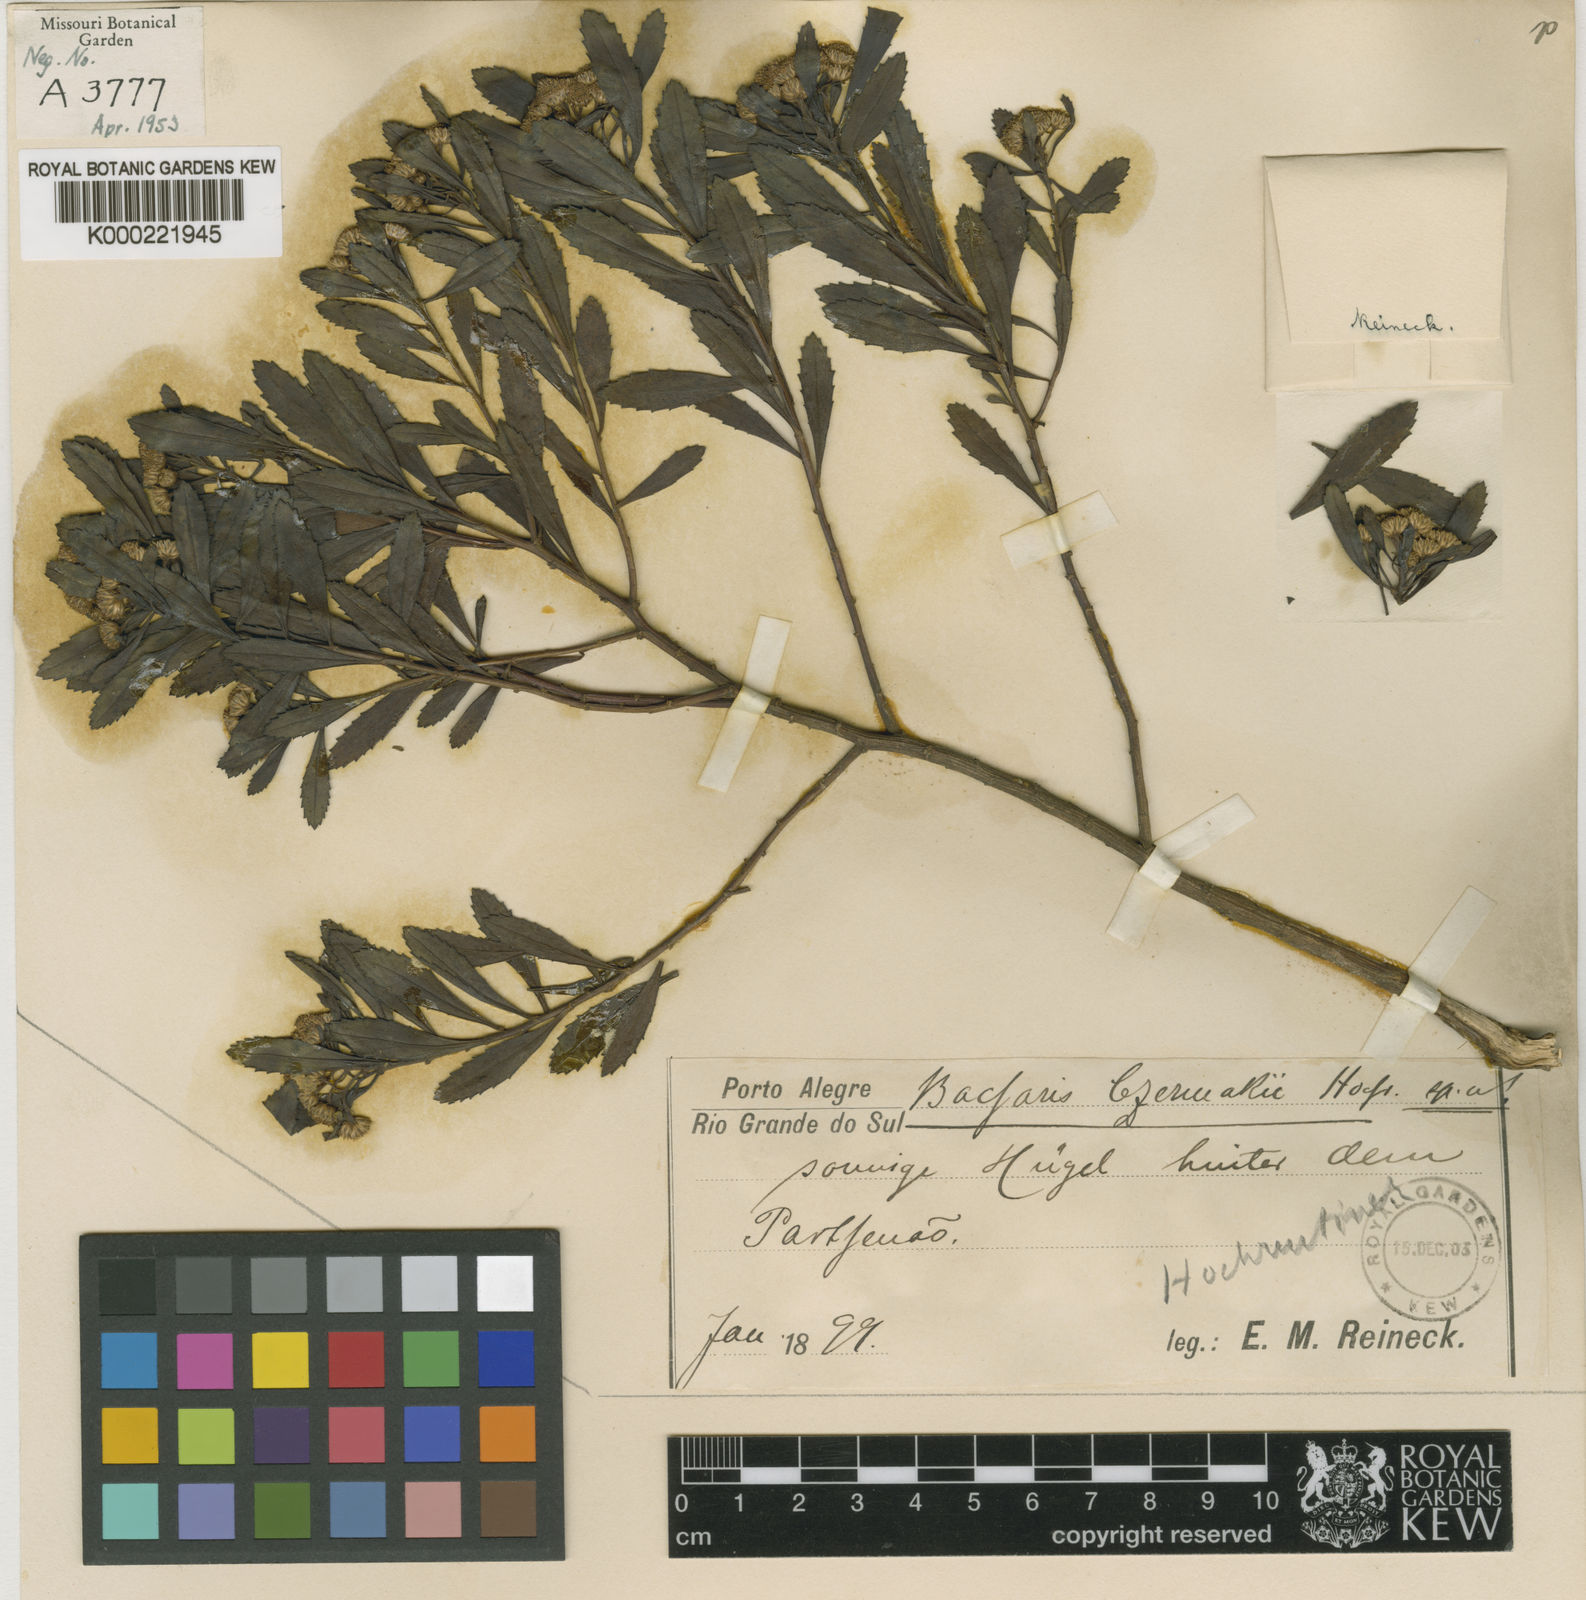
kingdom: Plantae
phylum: Tracheophyta
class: Magnoliopsida
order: Asterales
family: Asteraceae
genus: Baccharis
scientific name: Baccharis psiadioides
